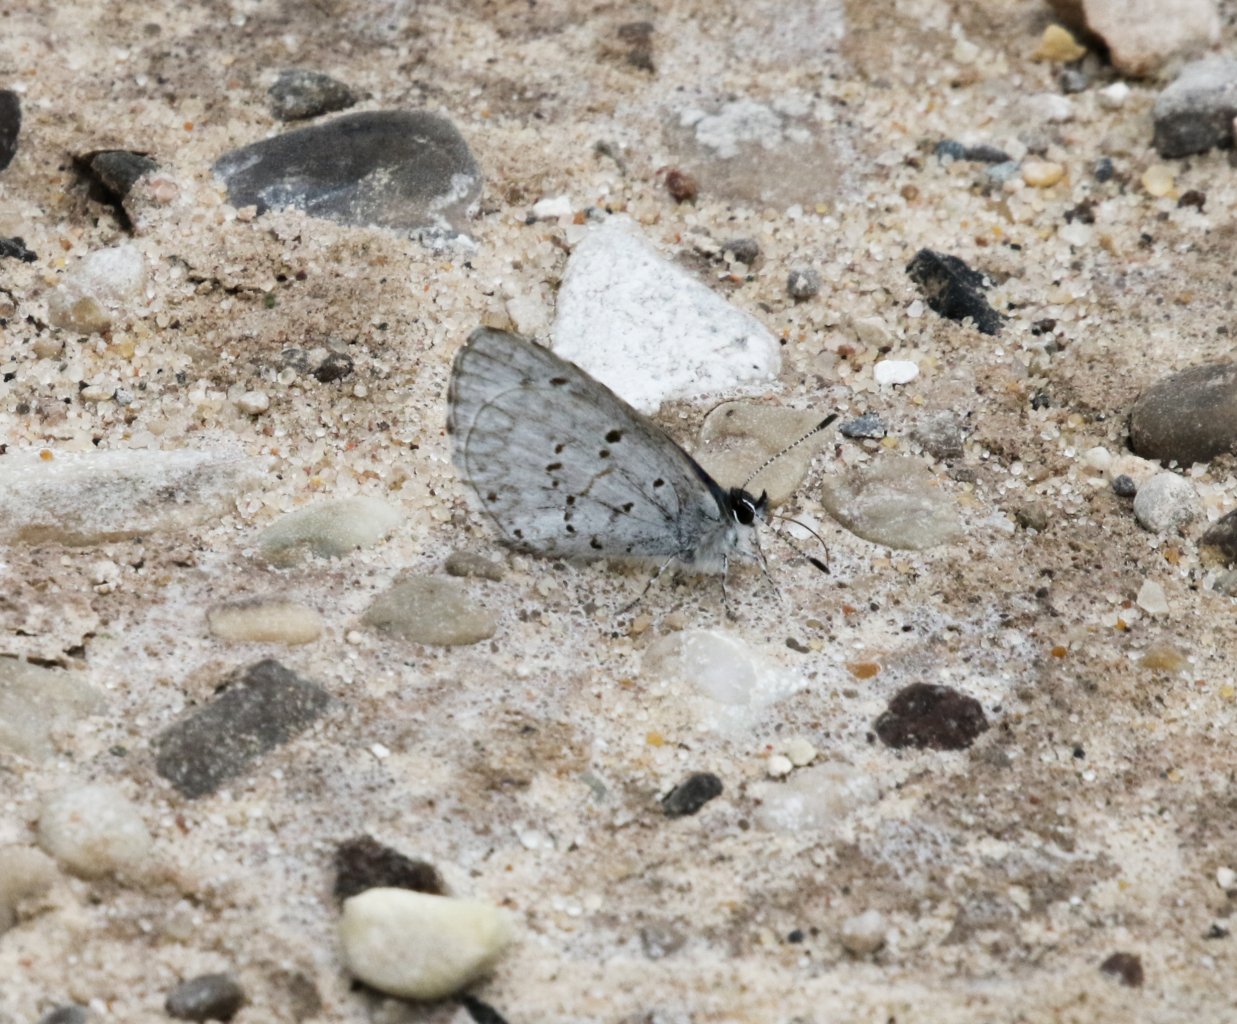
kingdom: Animalia
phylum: Arthropoda
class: Insecta
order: Lepidoptera
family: Lycaenidae
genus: Celastrina
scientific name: Celastrina lucia
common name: Northern Spring Azure
